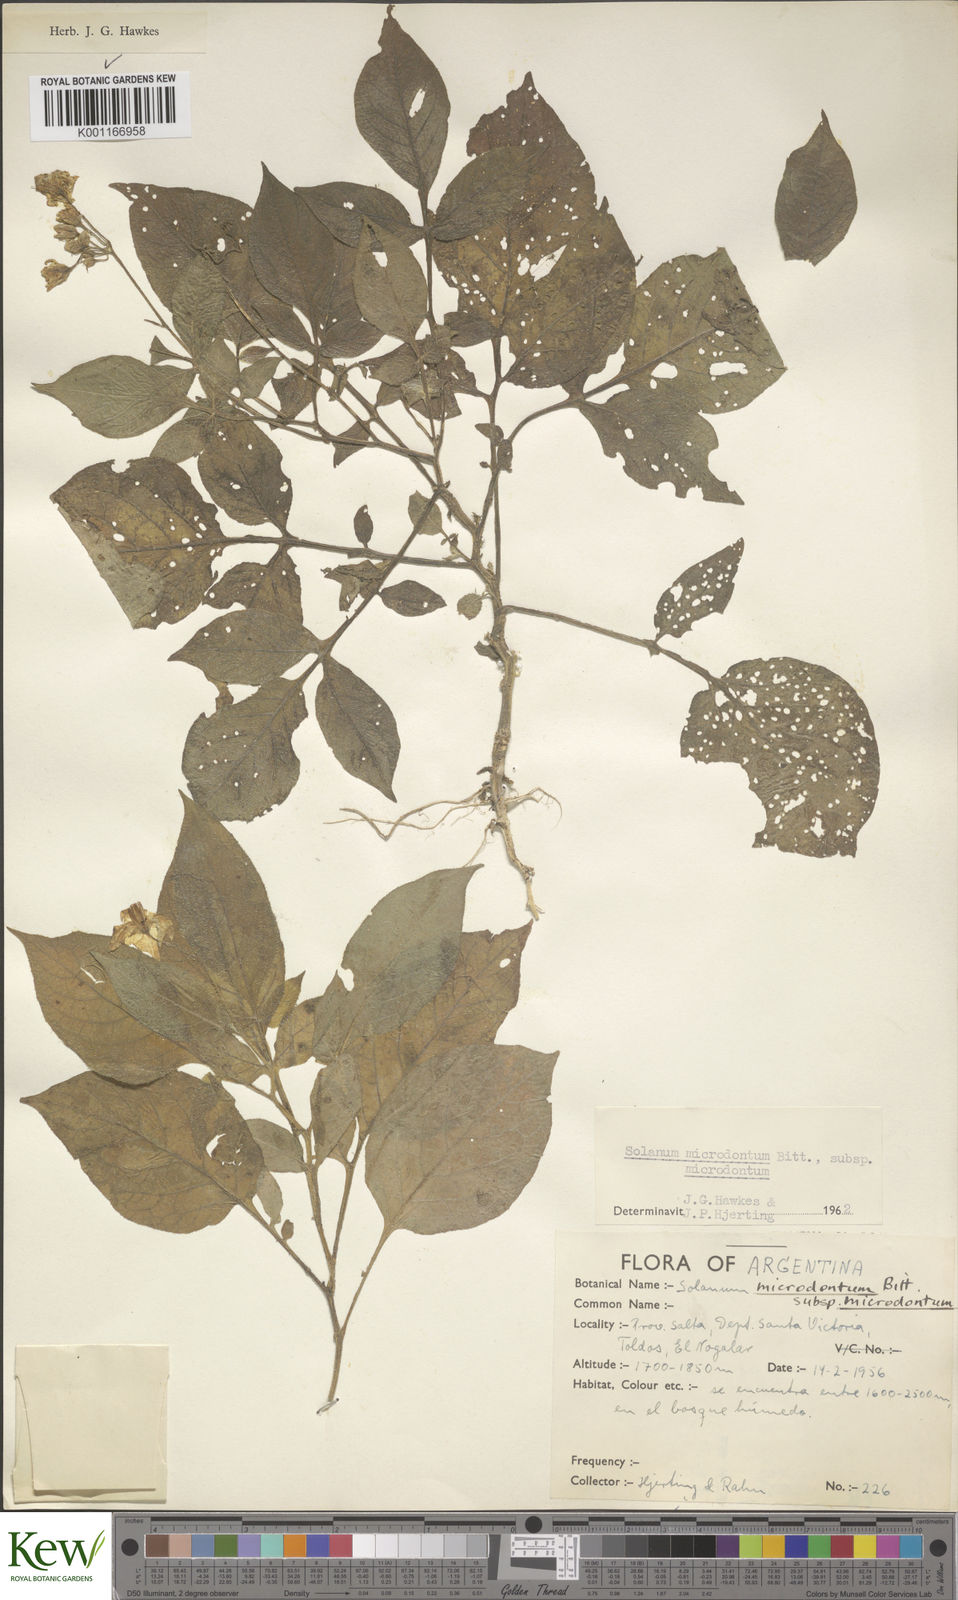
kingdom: Plantae
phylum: Tracheophyta
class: Magnoliopsida
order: Solanales
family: Solanaceae
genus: Solanum
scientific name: Solanum microdontum
